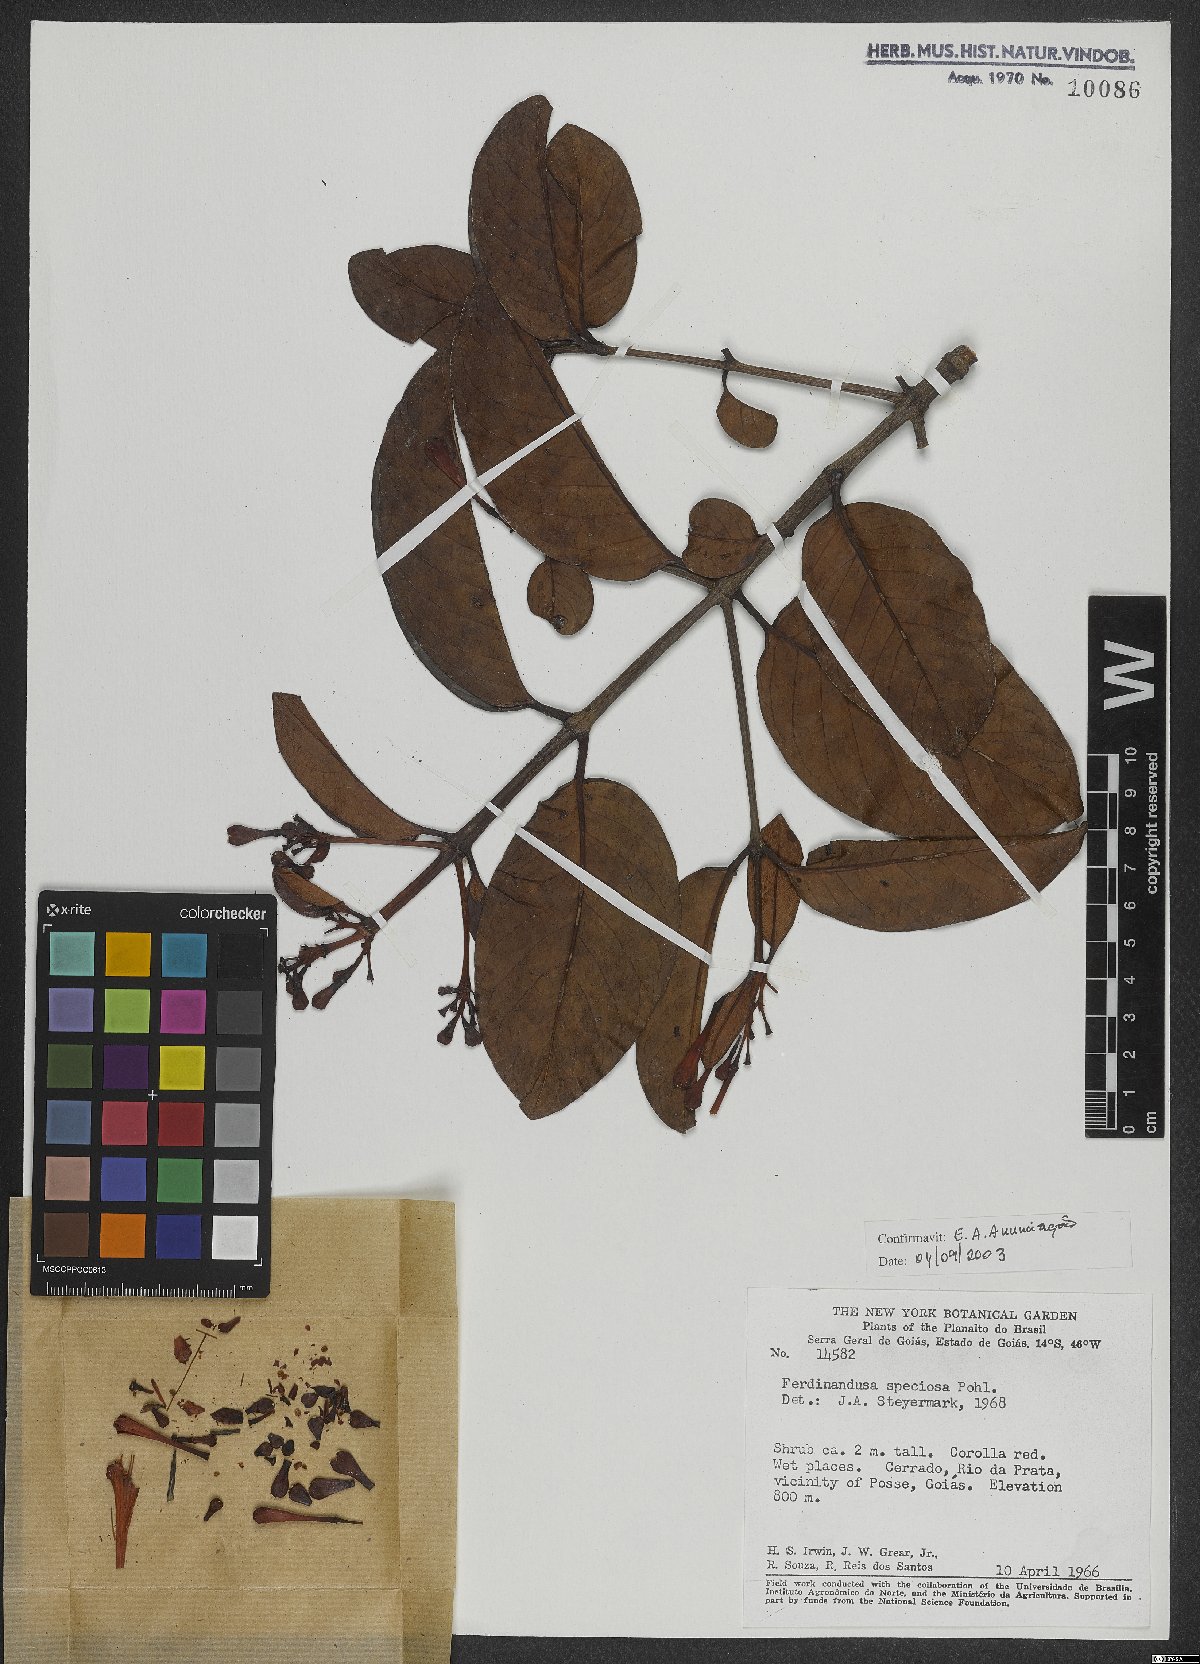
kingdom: Plantae
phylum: Tracheophyta
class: Magnoliopsida
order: Gentianales
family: Rubiaceae
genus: Ferdinandusa
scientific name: Ferdinandusa speciosa
